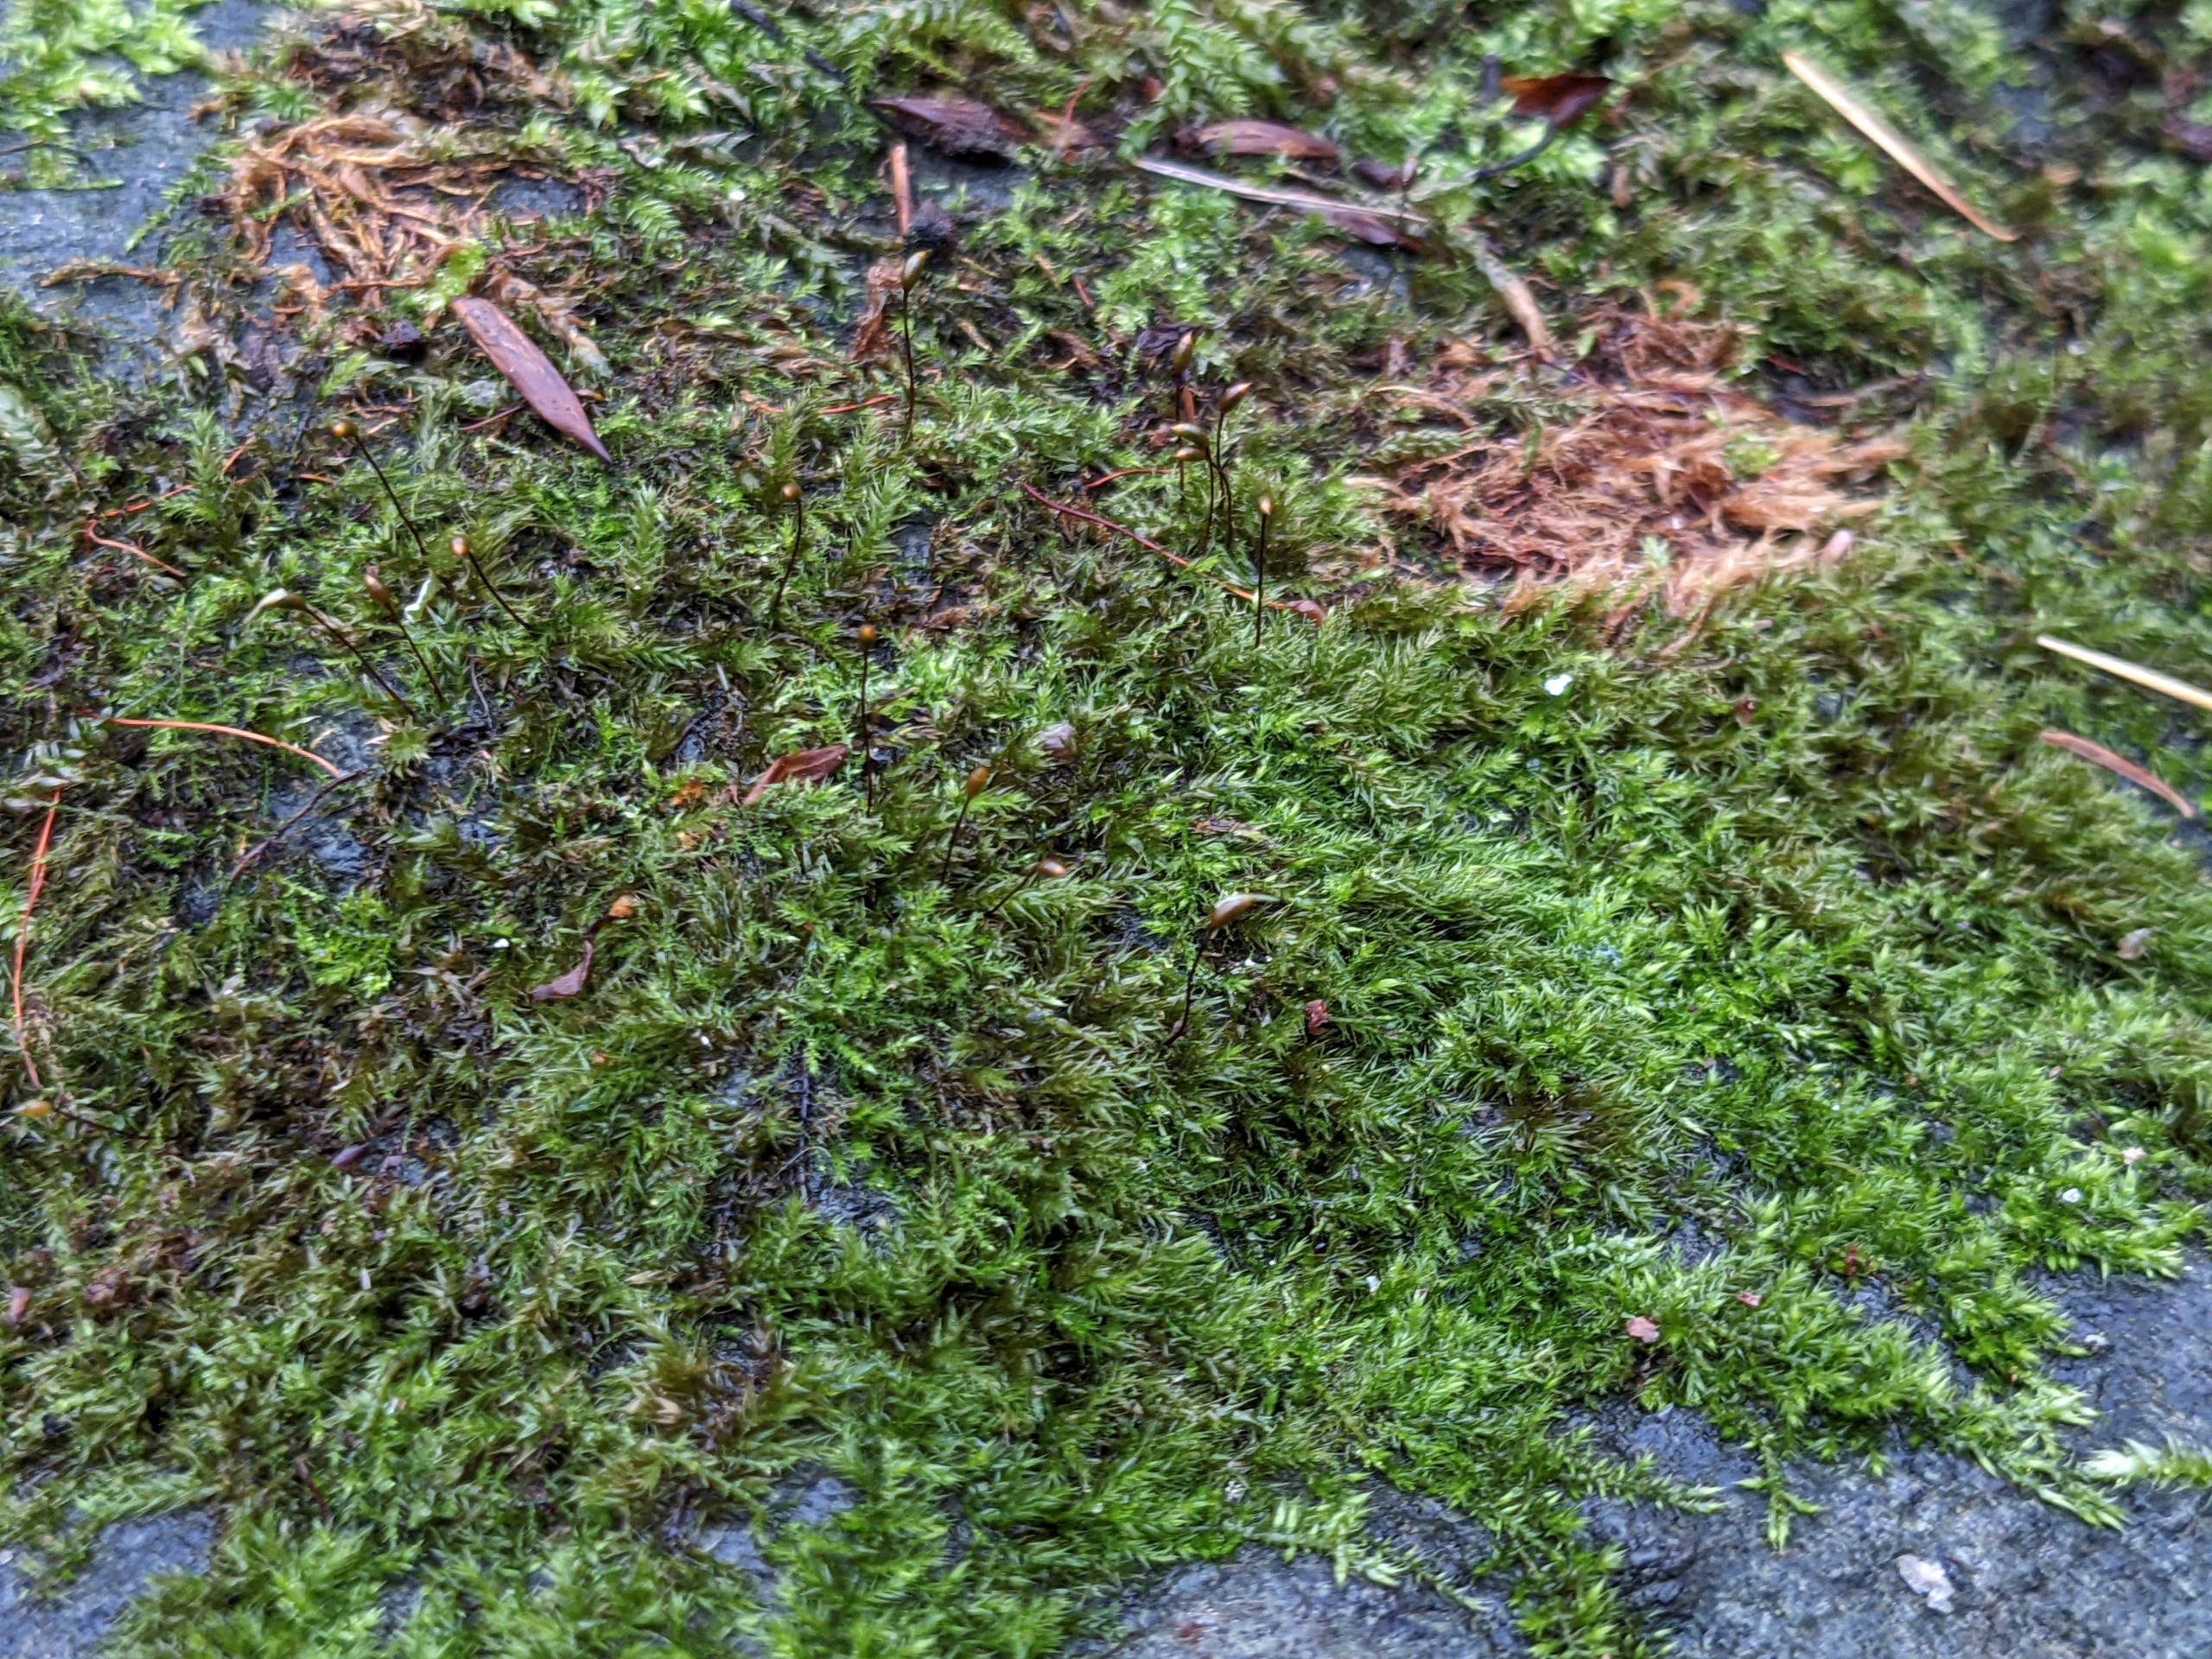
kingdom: Plantae
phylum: Bryophyta
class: Bryopsida
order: Hypnales
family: Brachytheciaceae
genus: Sciuro-hypnum
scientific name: Sciuro-hypnum populeum
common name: Park-kortkapsel
